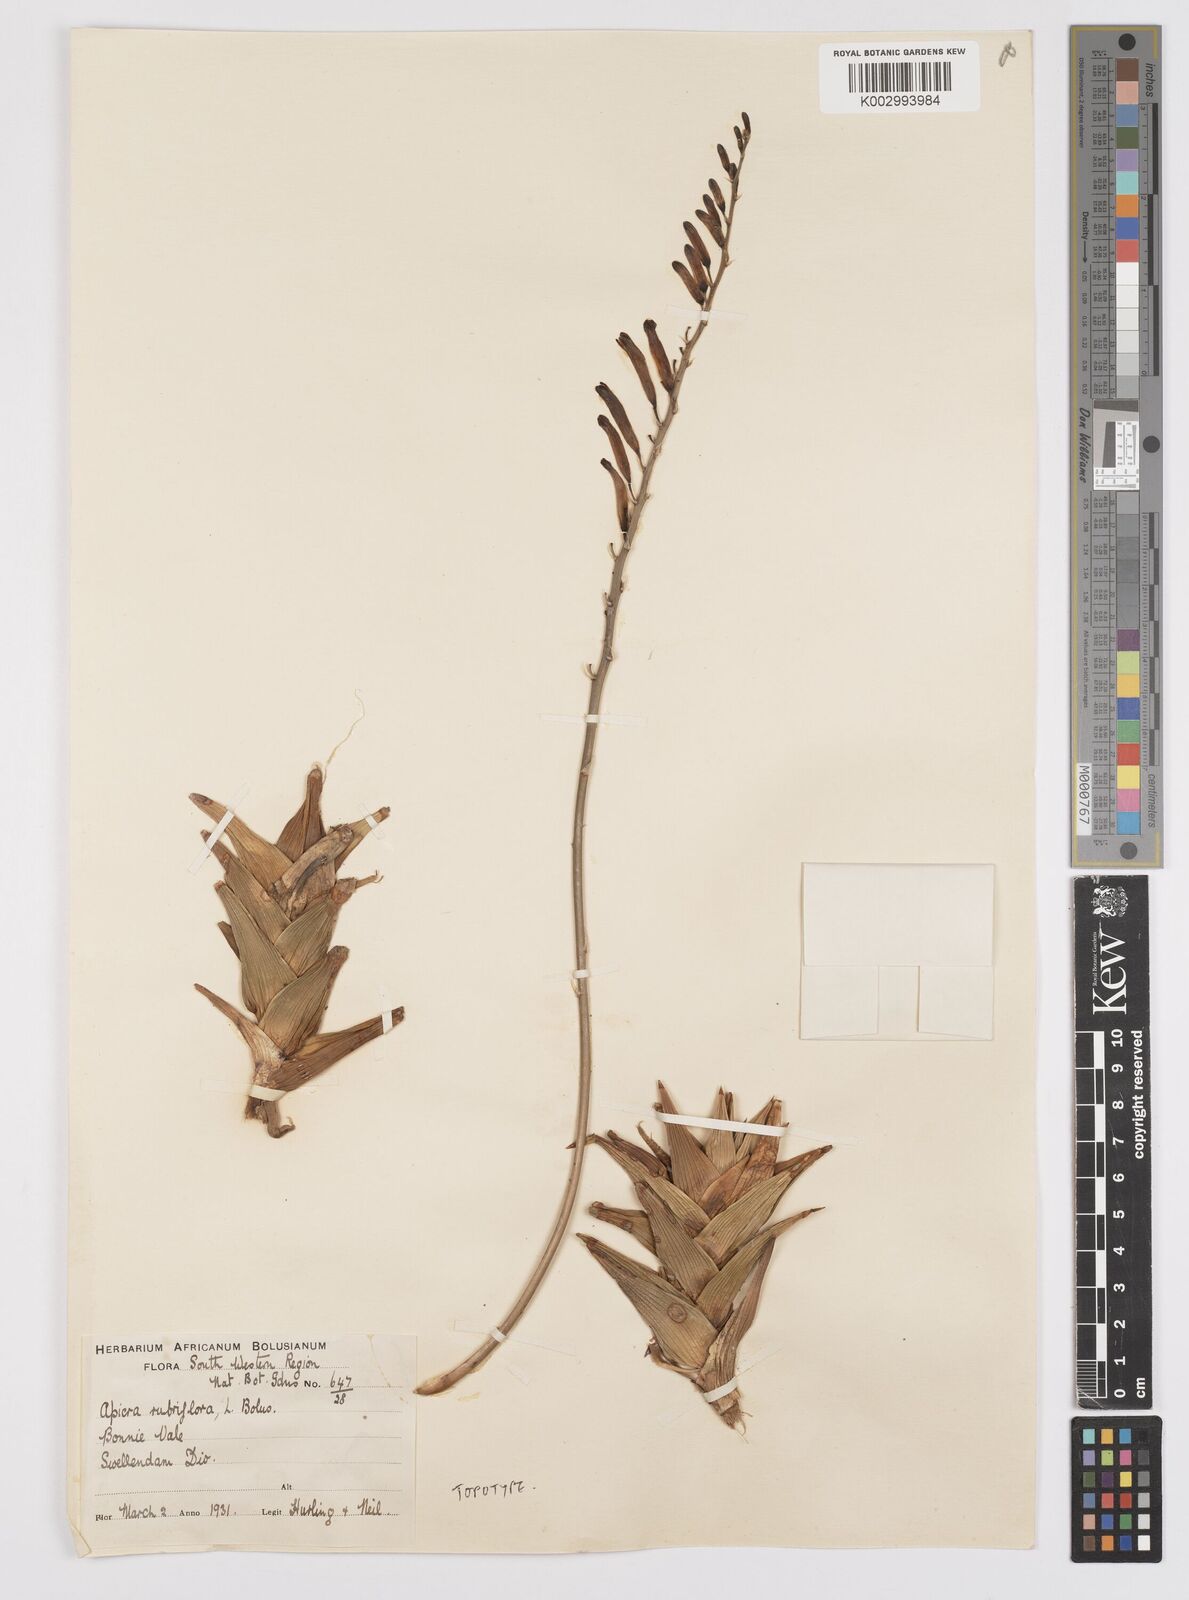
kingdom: Plantae
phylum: Tracheophyta
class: Liliopsida
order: Asparagales
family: Asphodelaceae
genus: Astroloba
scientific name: Astroloba rubriflora
